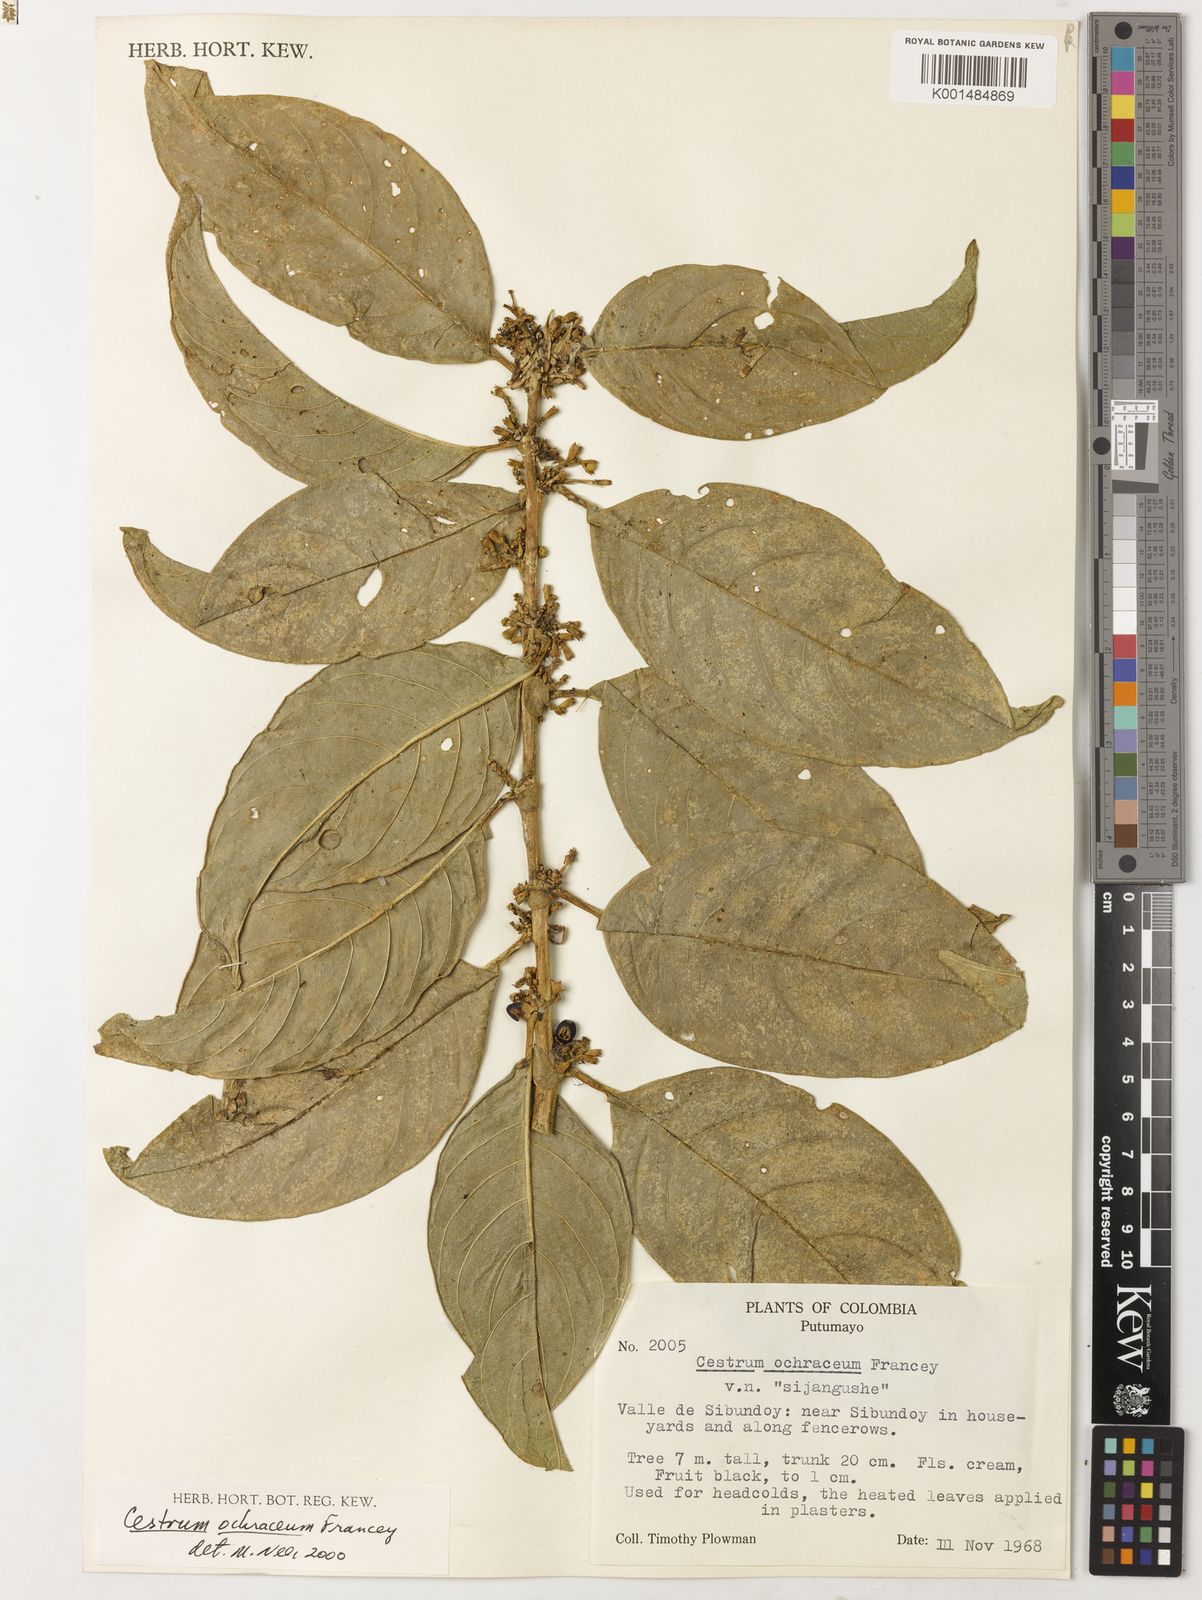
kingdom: Plantae
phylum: Tracheophyta
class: Magnoliopsida
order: Solanales
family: Solanaceae
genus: Cestrum
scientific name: Cestrum ochraceum
